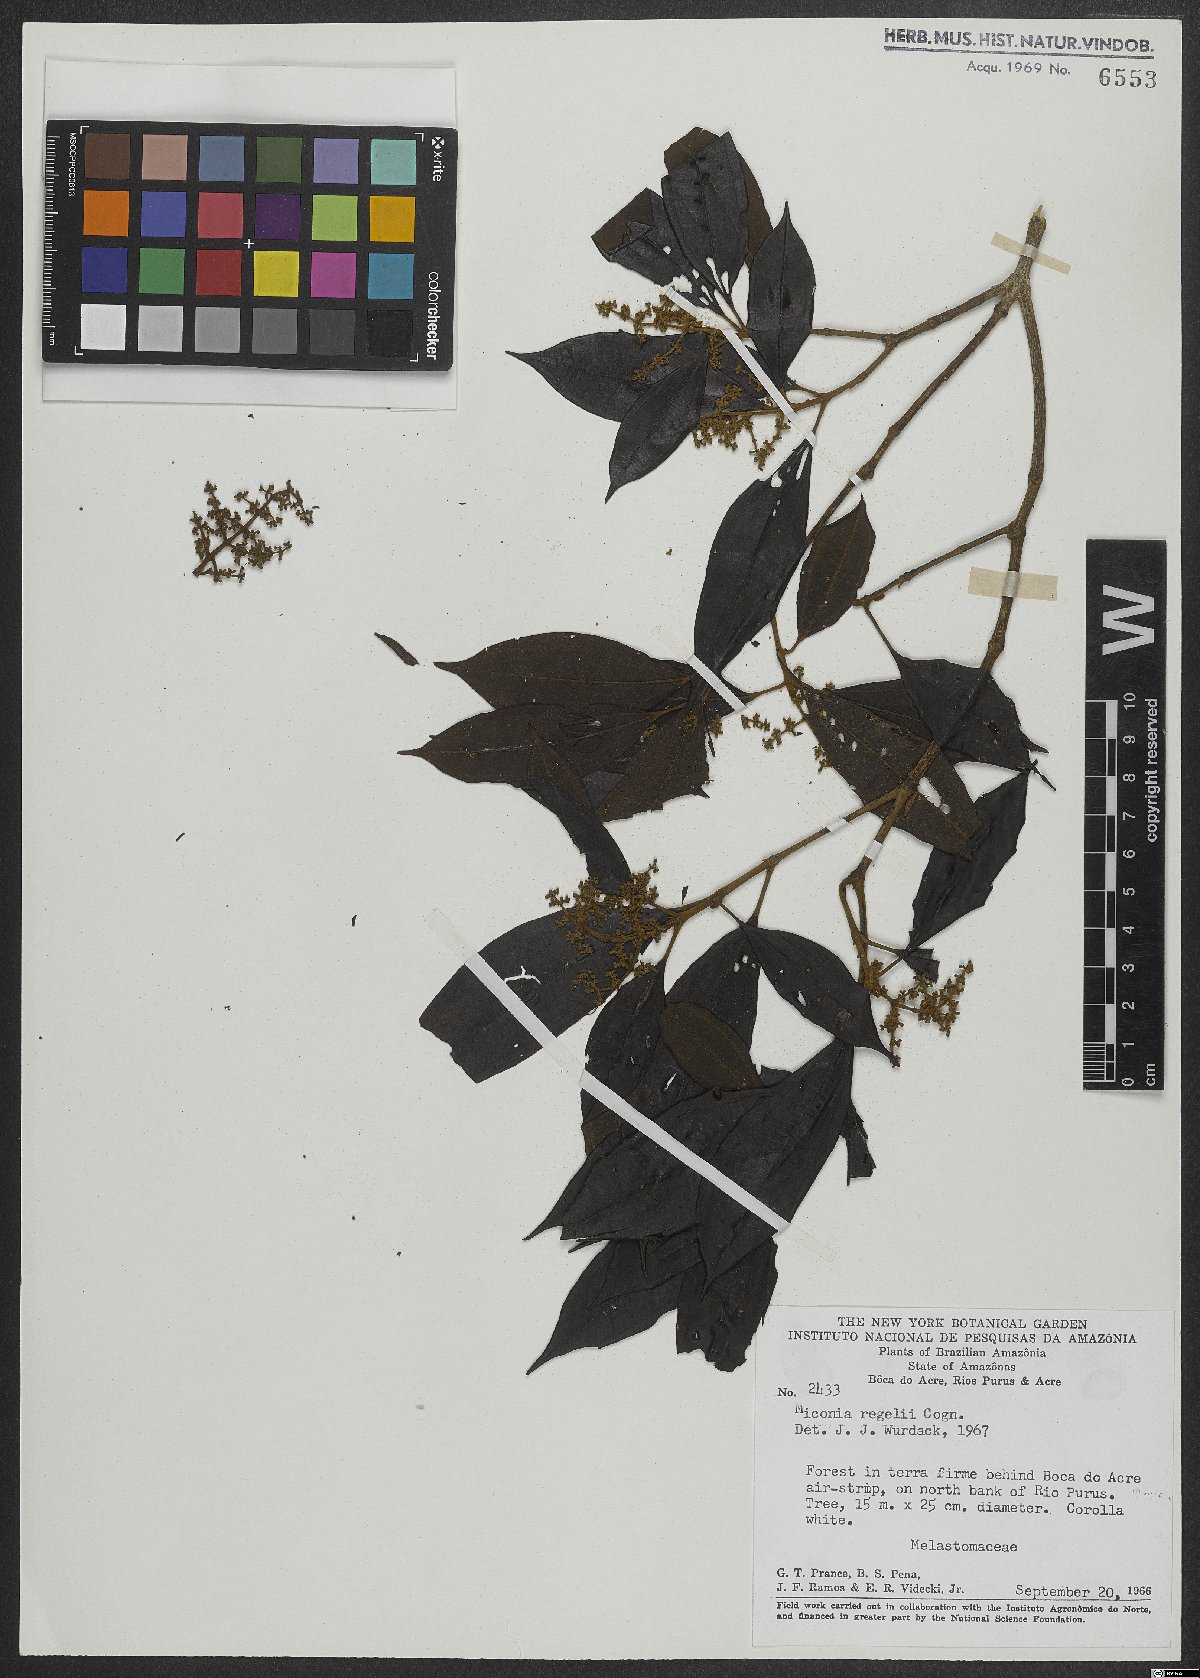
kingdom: Plantae
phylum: Tracheophyta
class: Magnoliopsida
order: Myrtales
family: Melastomataceae
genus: Miconia
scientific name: Miconia regelii
